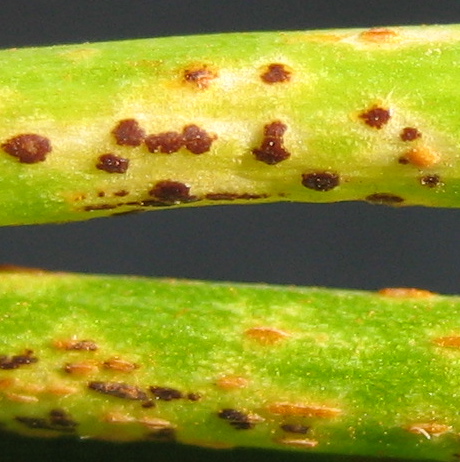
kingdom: Fungi
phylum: Basidiomycota
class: Pucciniomycetes
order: Pucciniales
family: Pucciniaceae
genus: Puccinia
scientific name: Puccinia porri
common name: Allium rust
